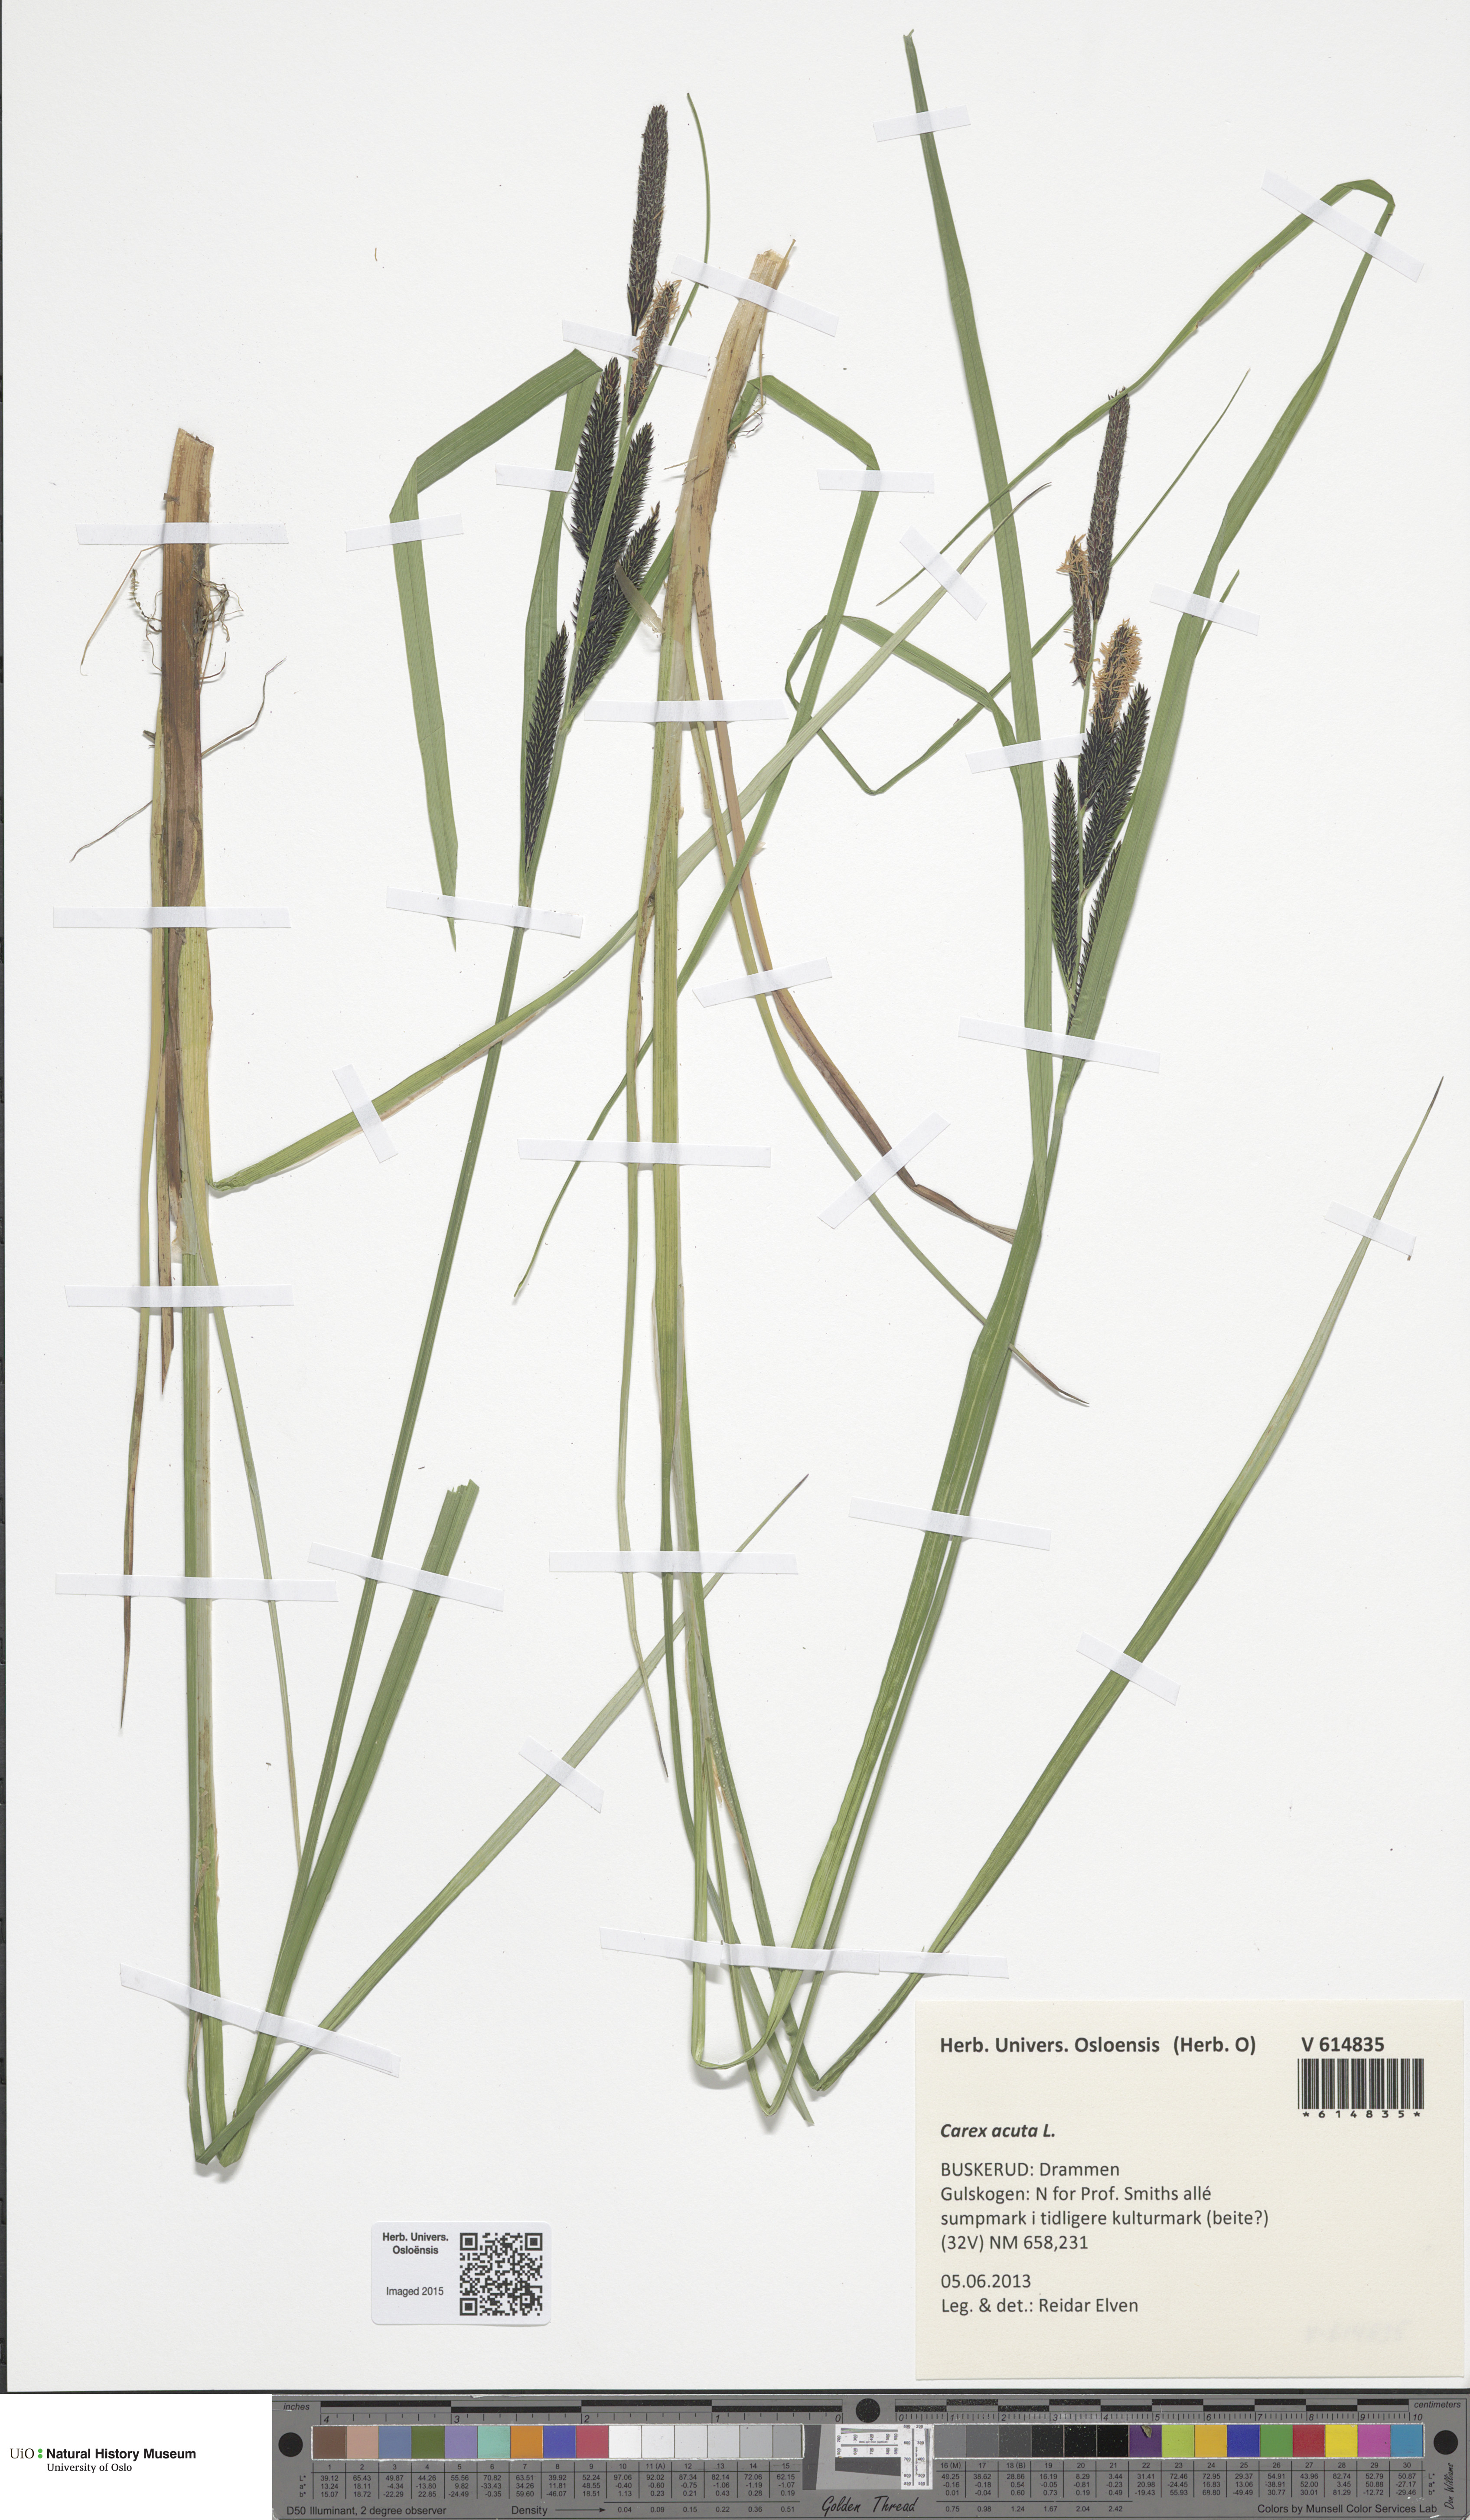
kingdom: Plantae
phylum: Tracheophyta
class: Liliopsida
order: Poales
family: Cyperaceae
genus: Carex
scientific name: Carex acuta
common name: Slender tufted-sedge
